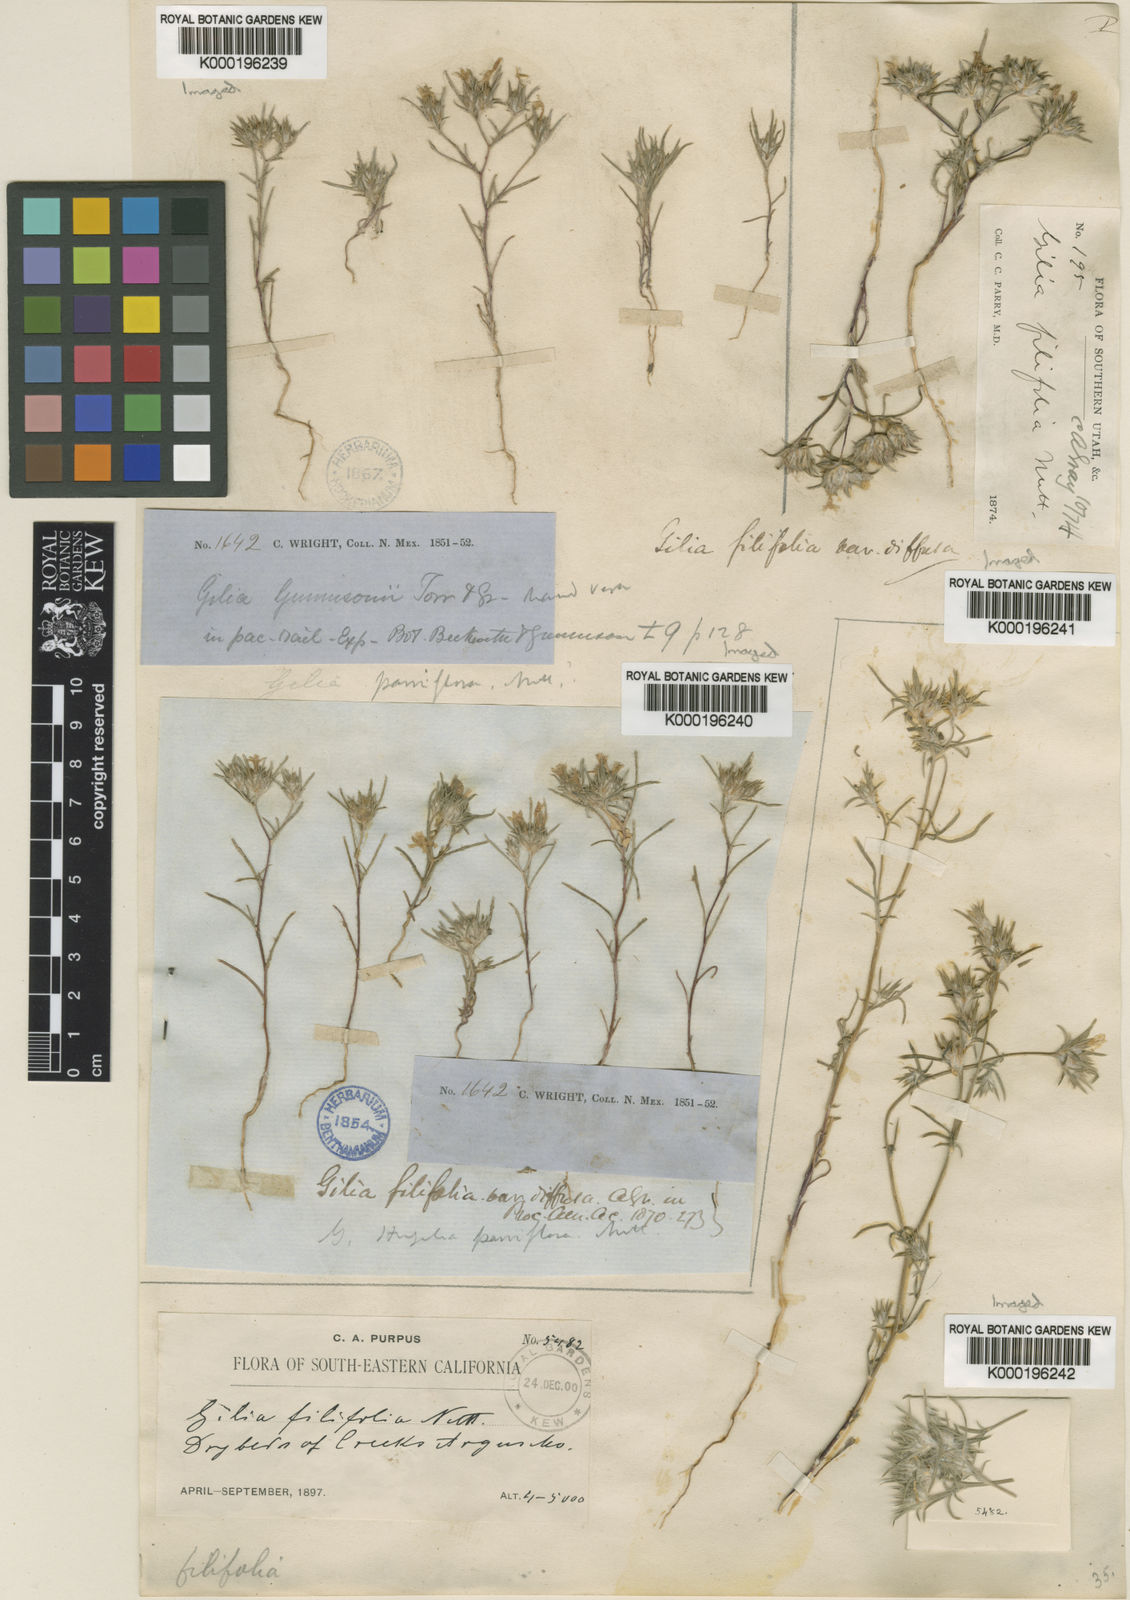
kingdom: Plantae
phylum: Tracheophyta
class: Magnoliopsida
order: Ericales
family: Polemoniaceae
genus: Eriastrum
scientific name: Eriastrum filifolium
